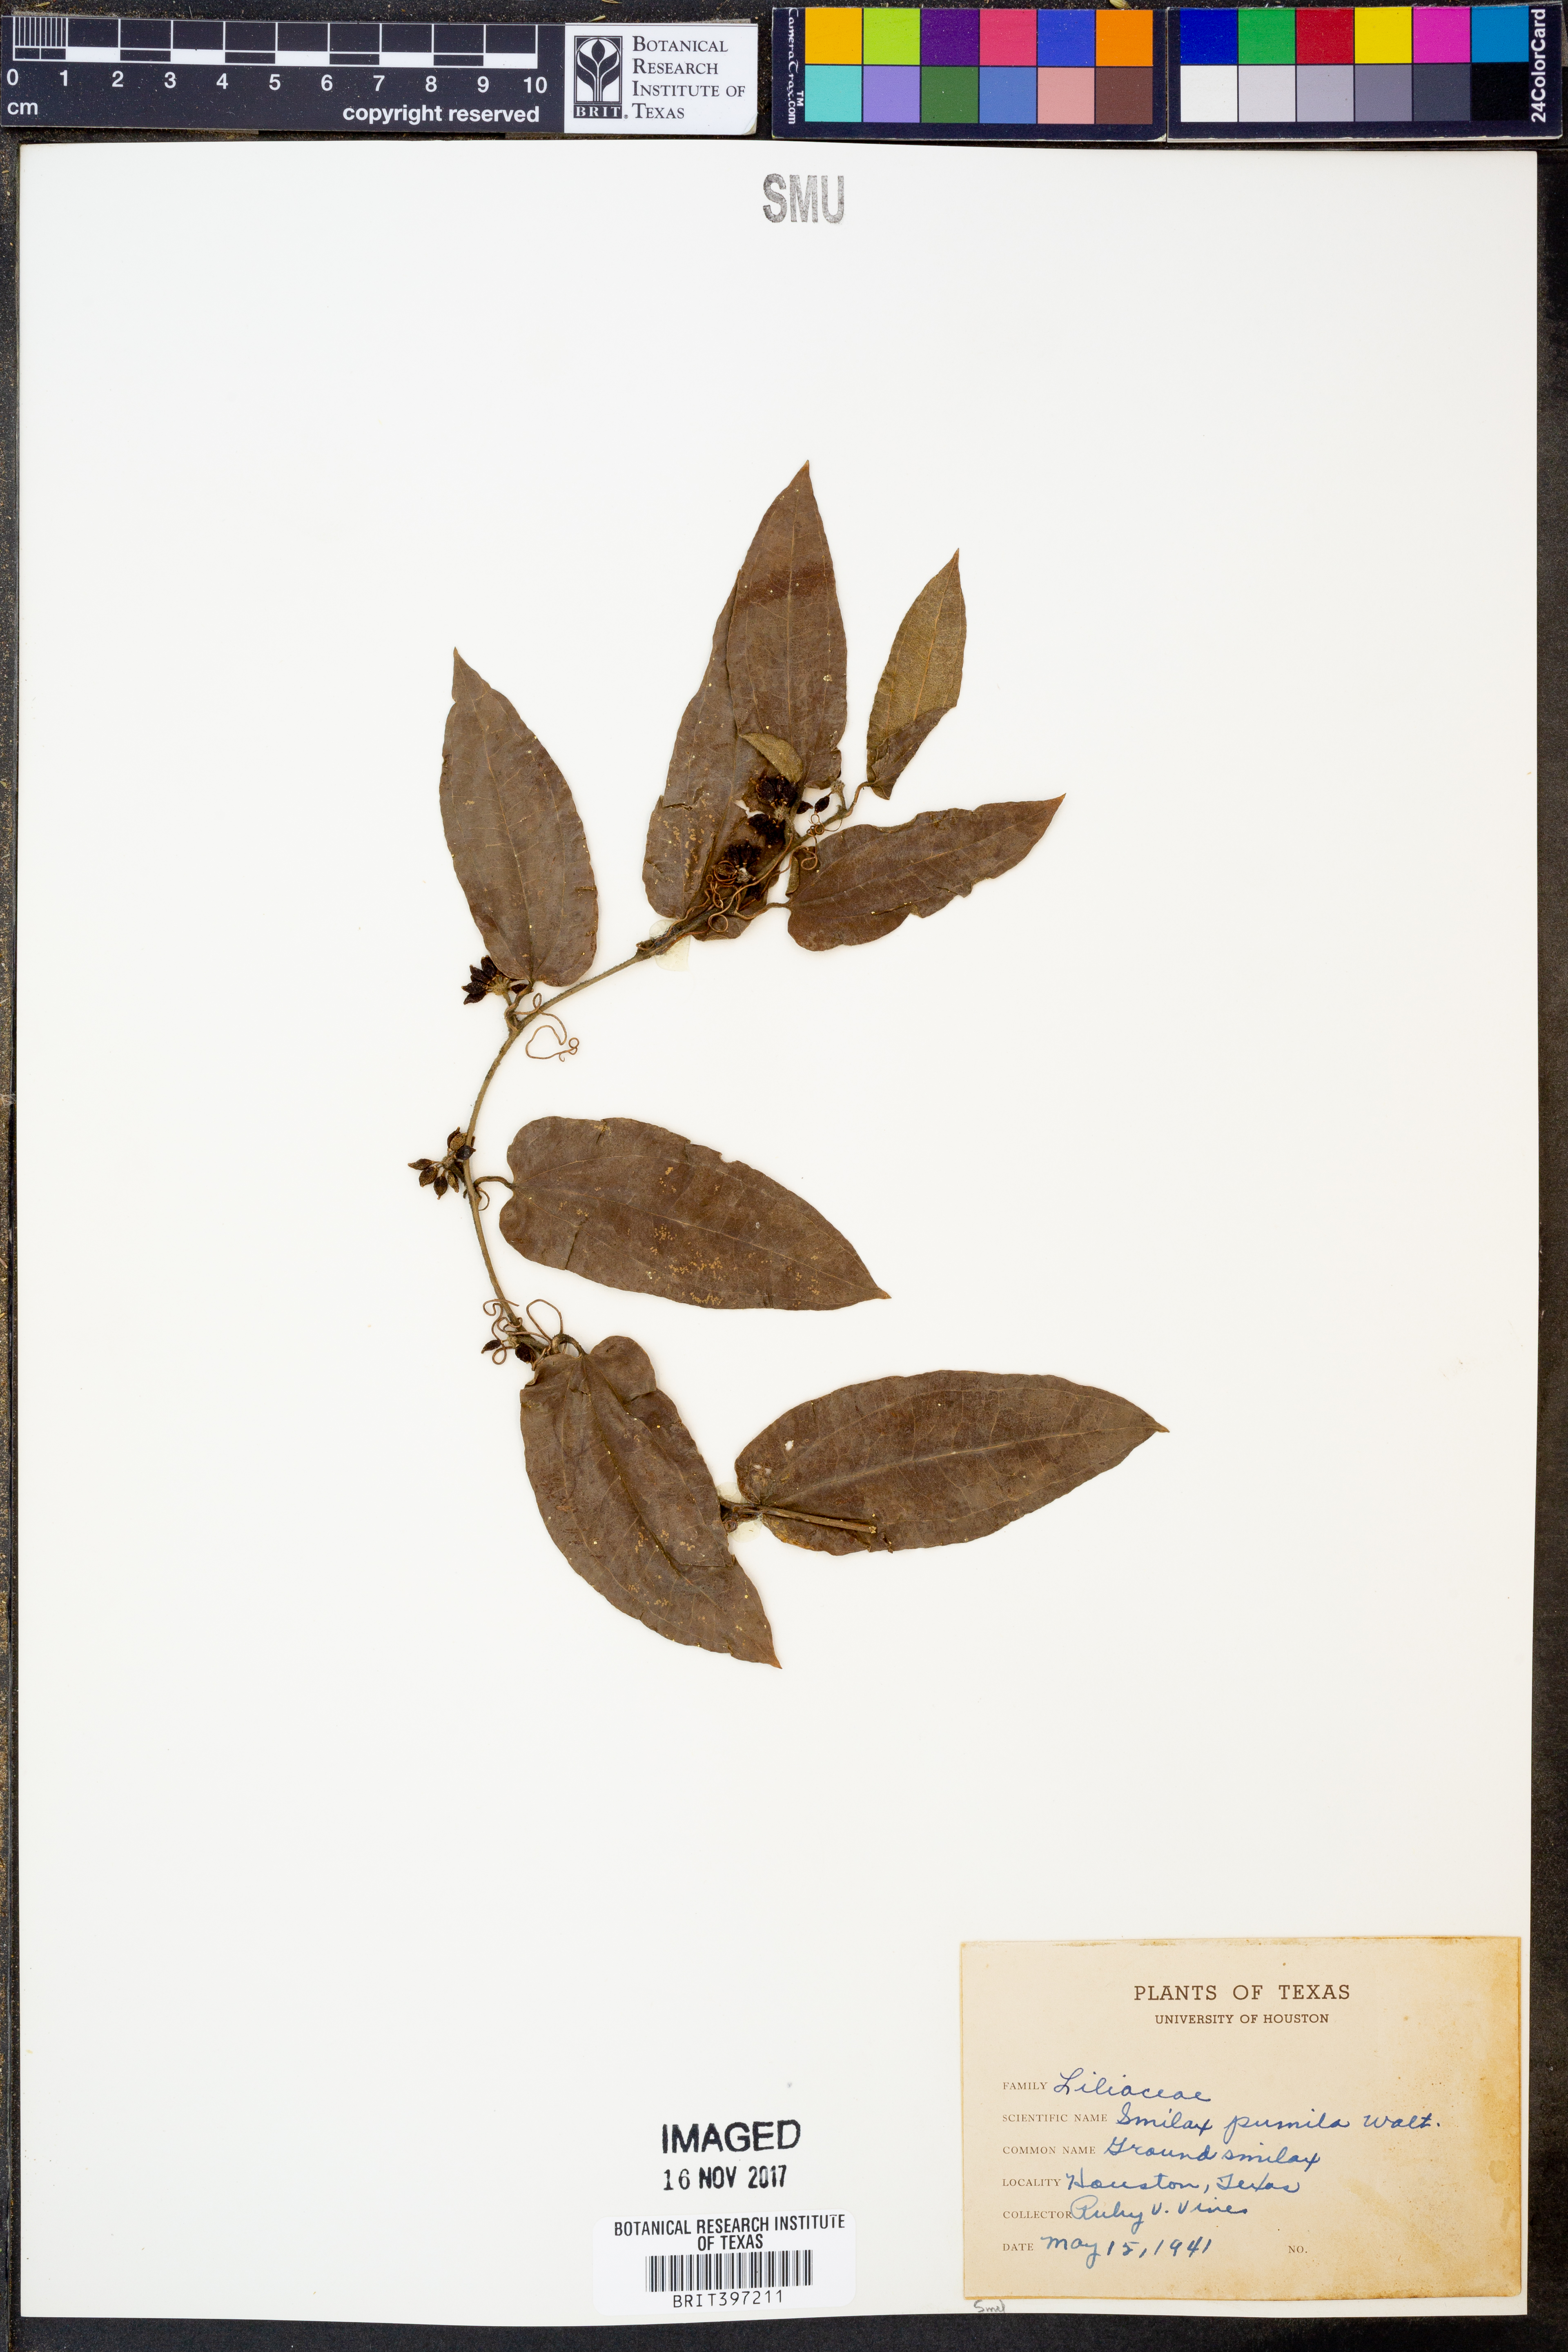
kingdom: Plantae
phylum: Tracheophyta
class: Liliopsida
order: Liliales
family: Smilacaceae
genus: Smilax
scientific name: Smilax pumila
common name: Sarsaparilla-vine
